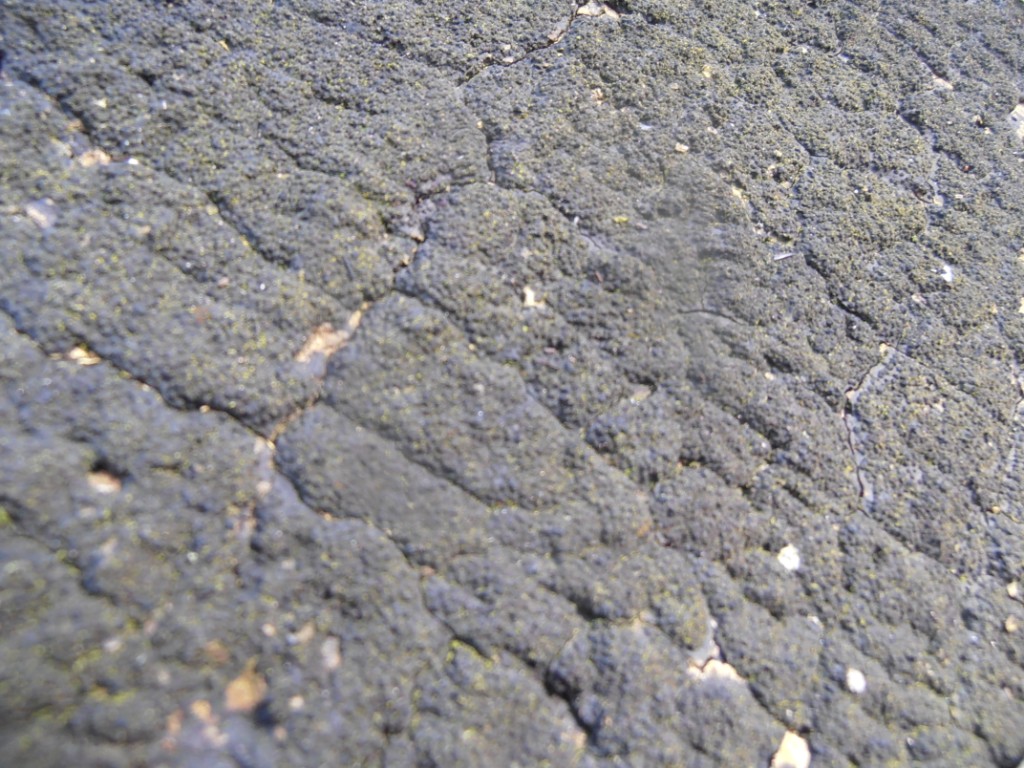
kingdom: Fungi
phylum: Ascomycota
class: Sordariomycetes
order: Xylariales
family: Diatrypaceae
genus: Eutypa
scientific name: Eutypa spinosa
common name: grov kulskorpe
